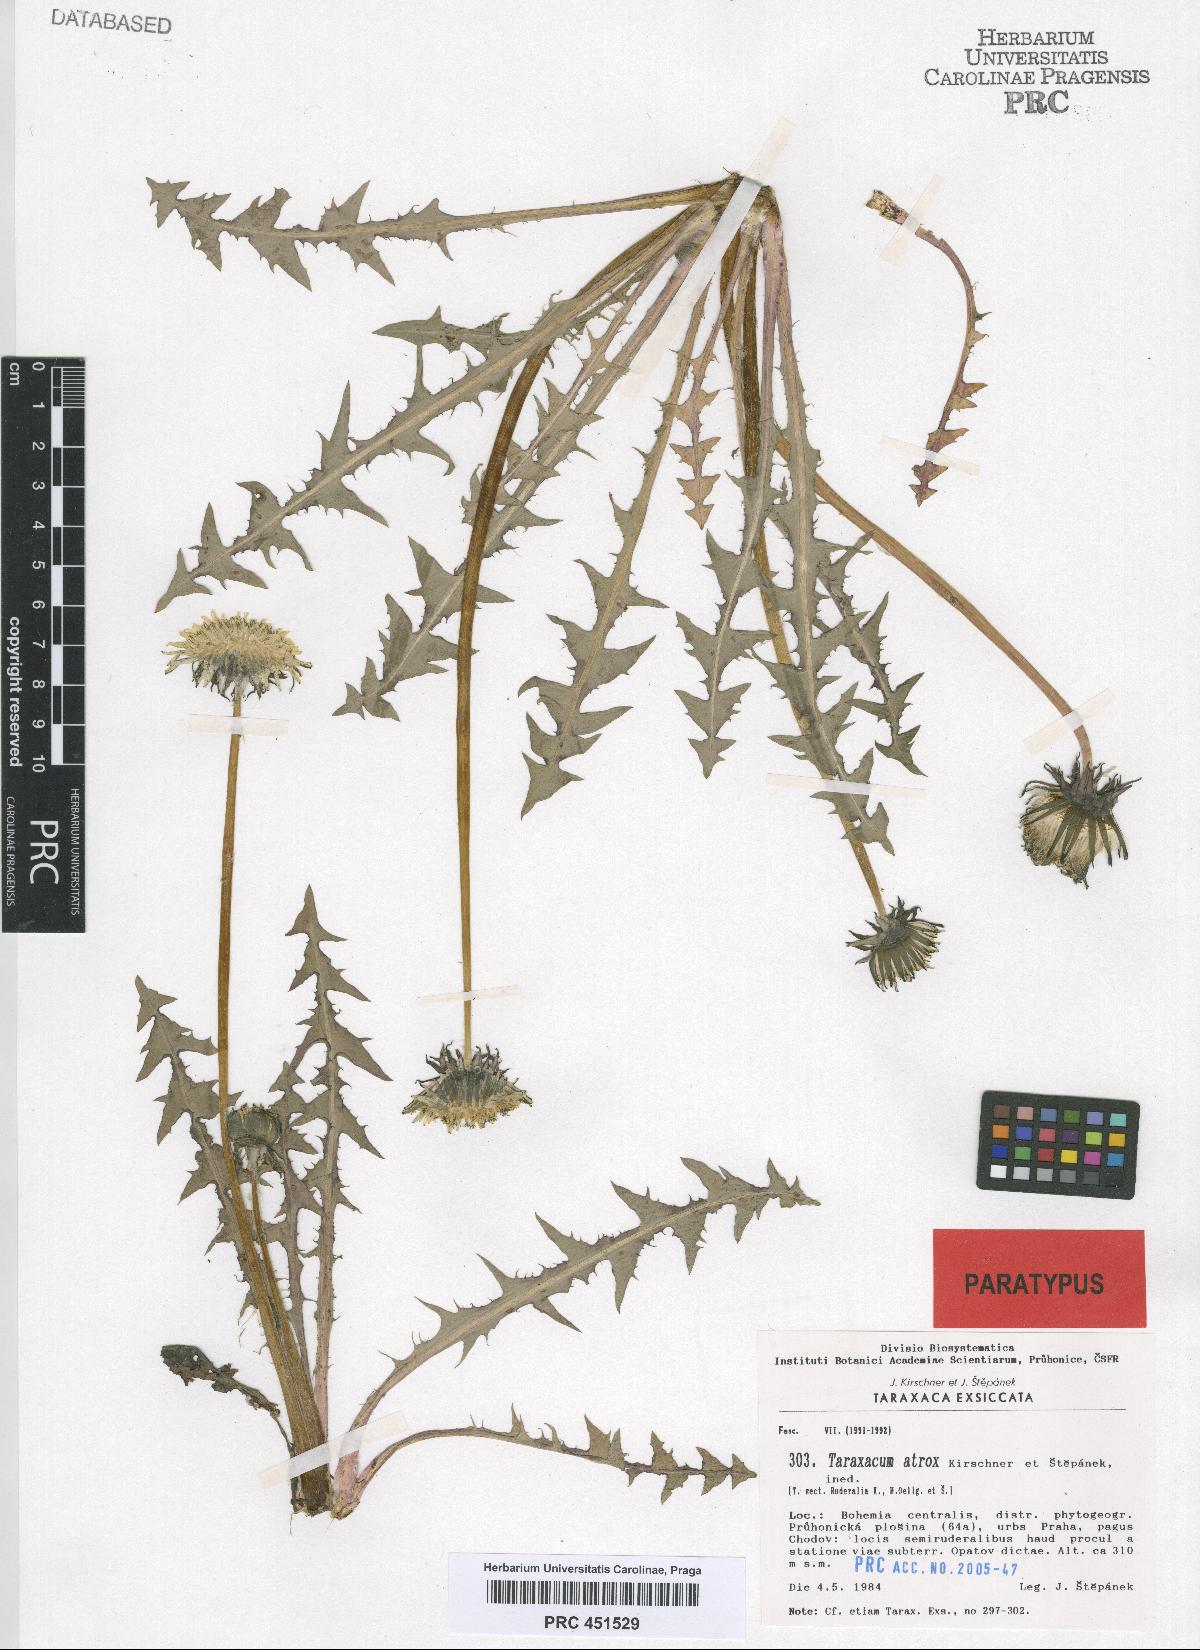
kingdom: Plantae
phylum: Tracheophyta
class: Magnoliopsida
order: Asterales
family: Asteraceae
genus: Taraxacum
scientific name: Taraxacum atrox
